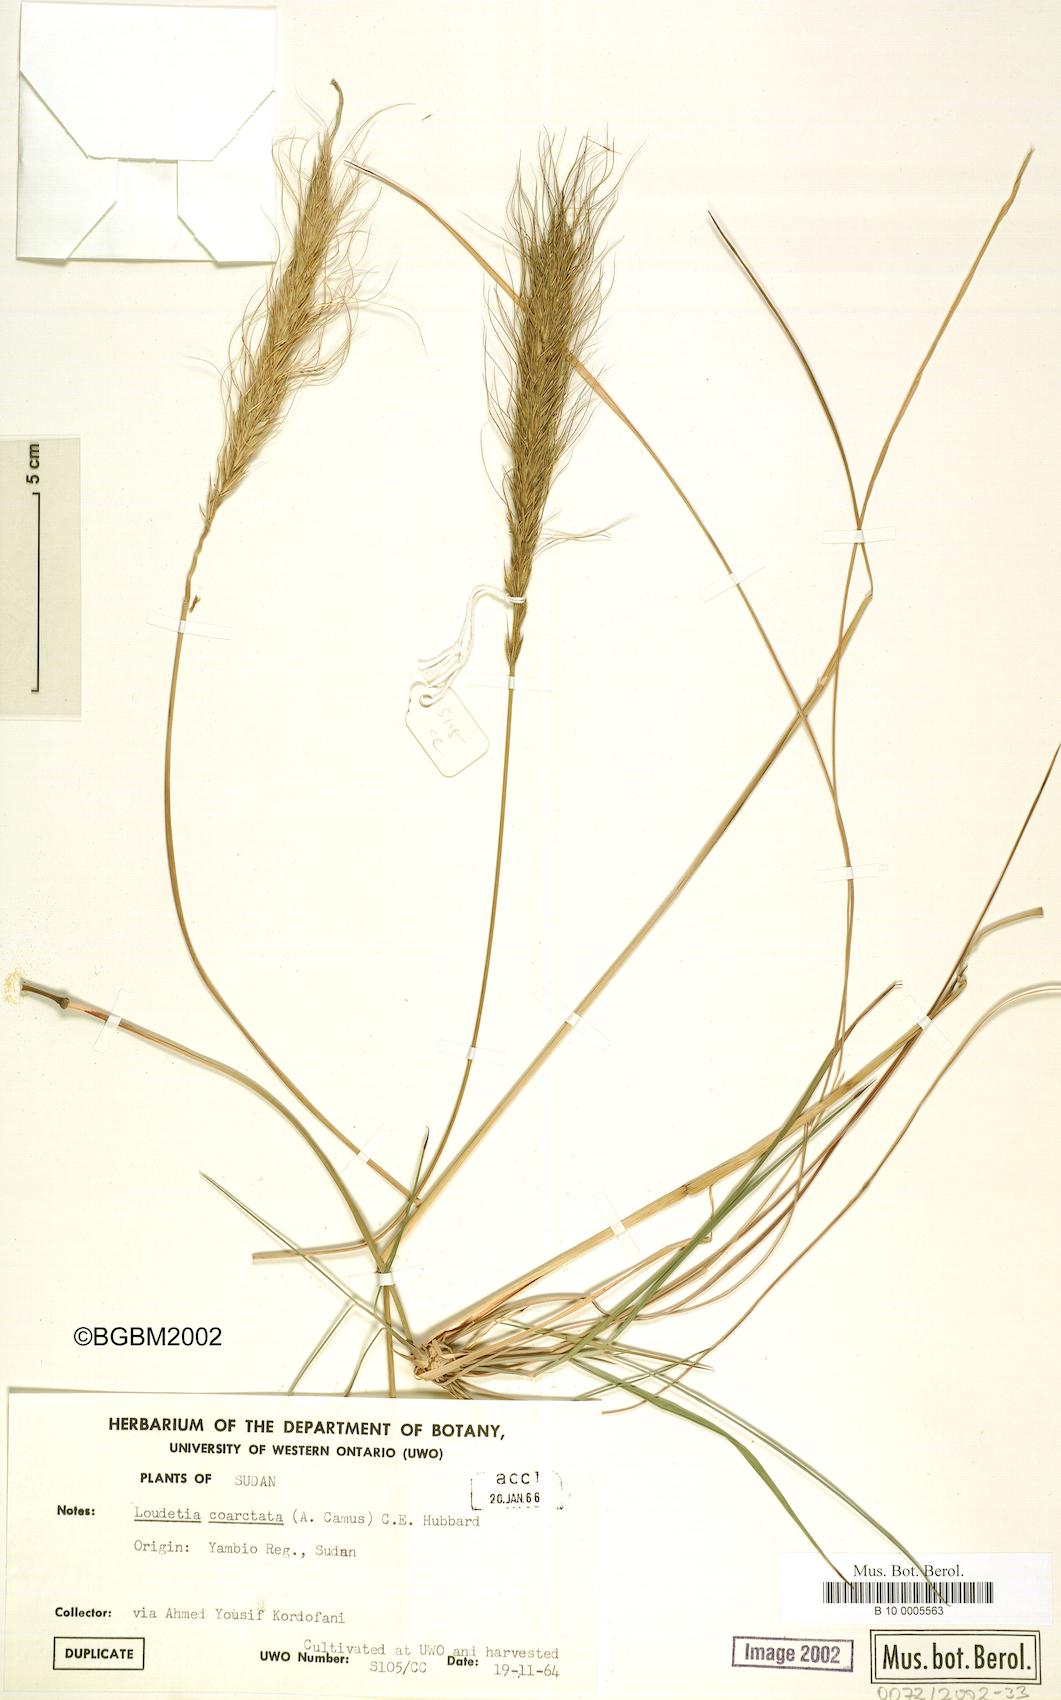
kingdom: Plantae
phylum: Tracheophyta
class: Liliopsida
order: Poales
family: Poaceae
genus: Loudetia
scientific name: Loudetia coarctata
